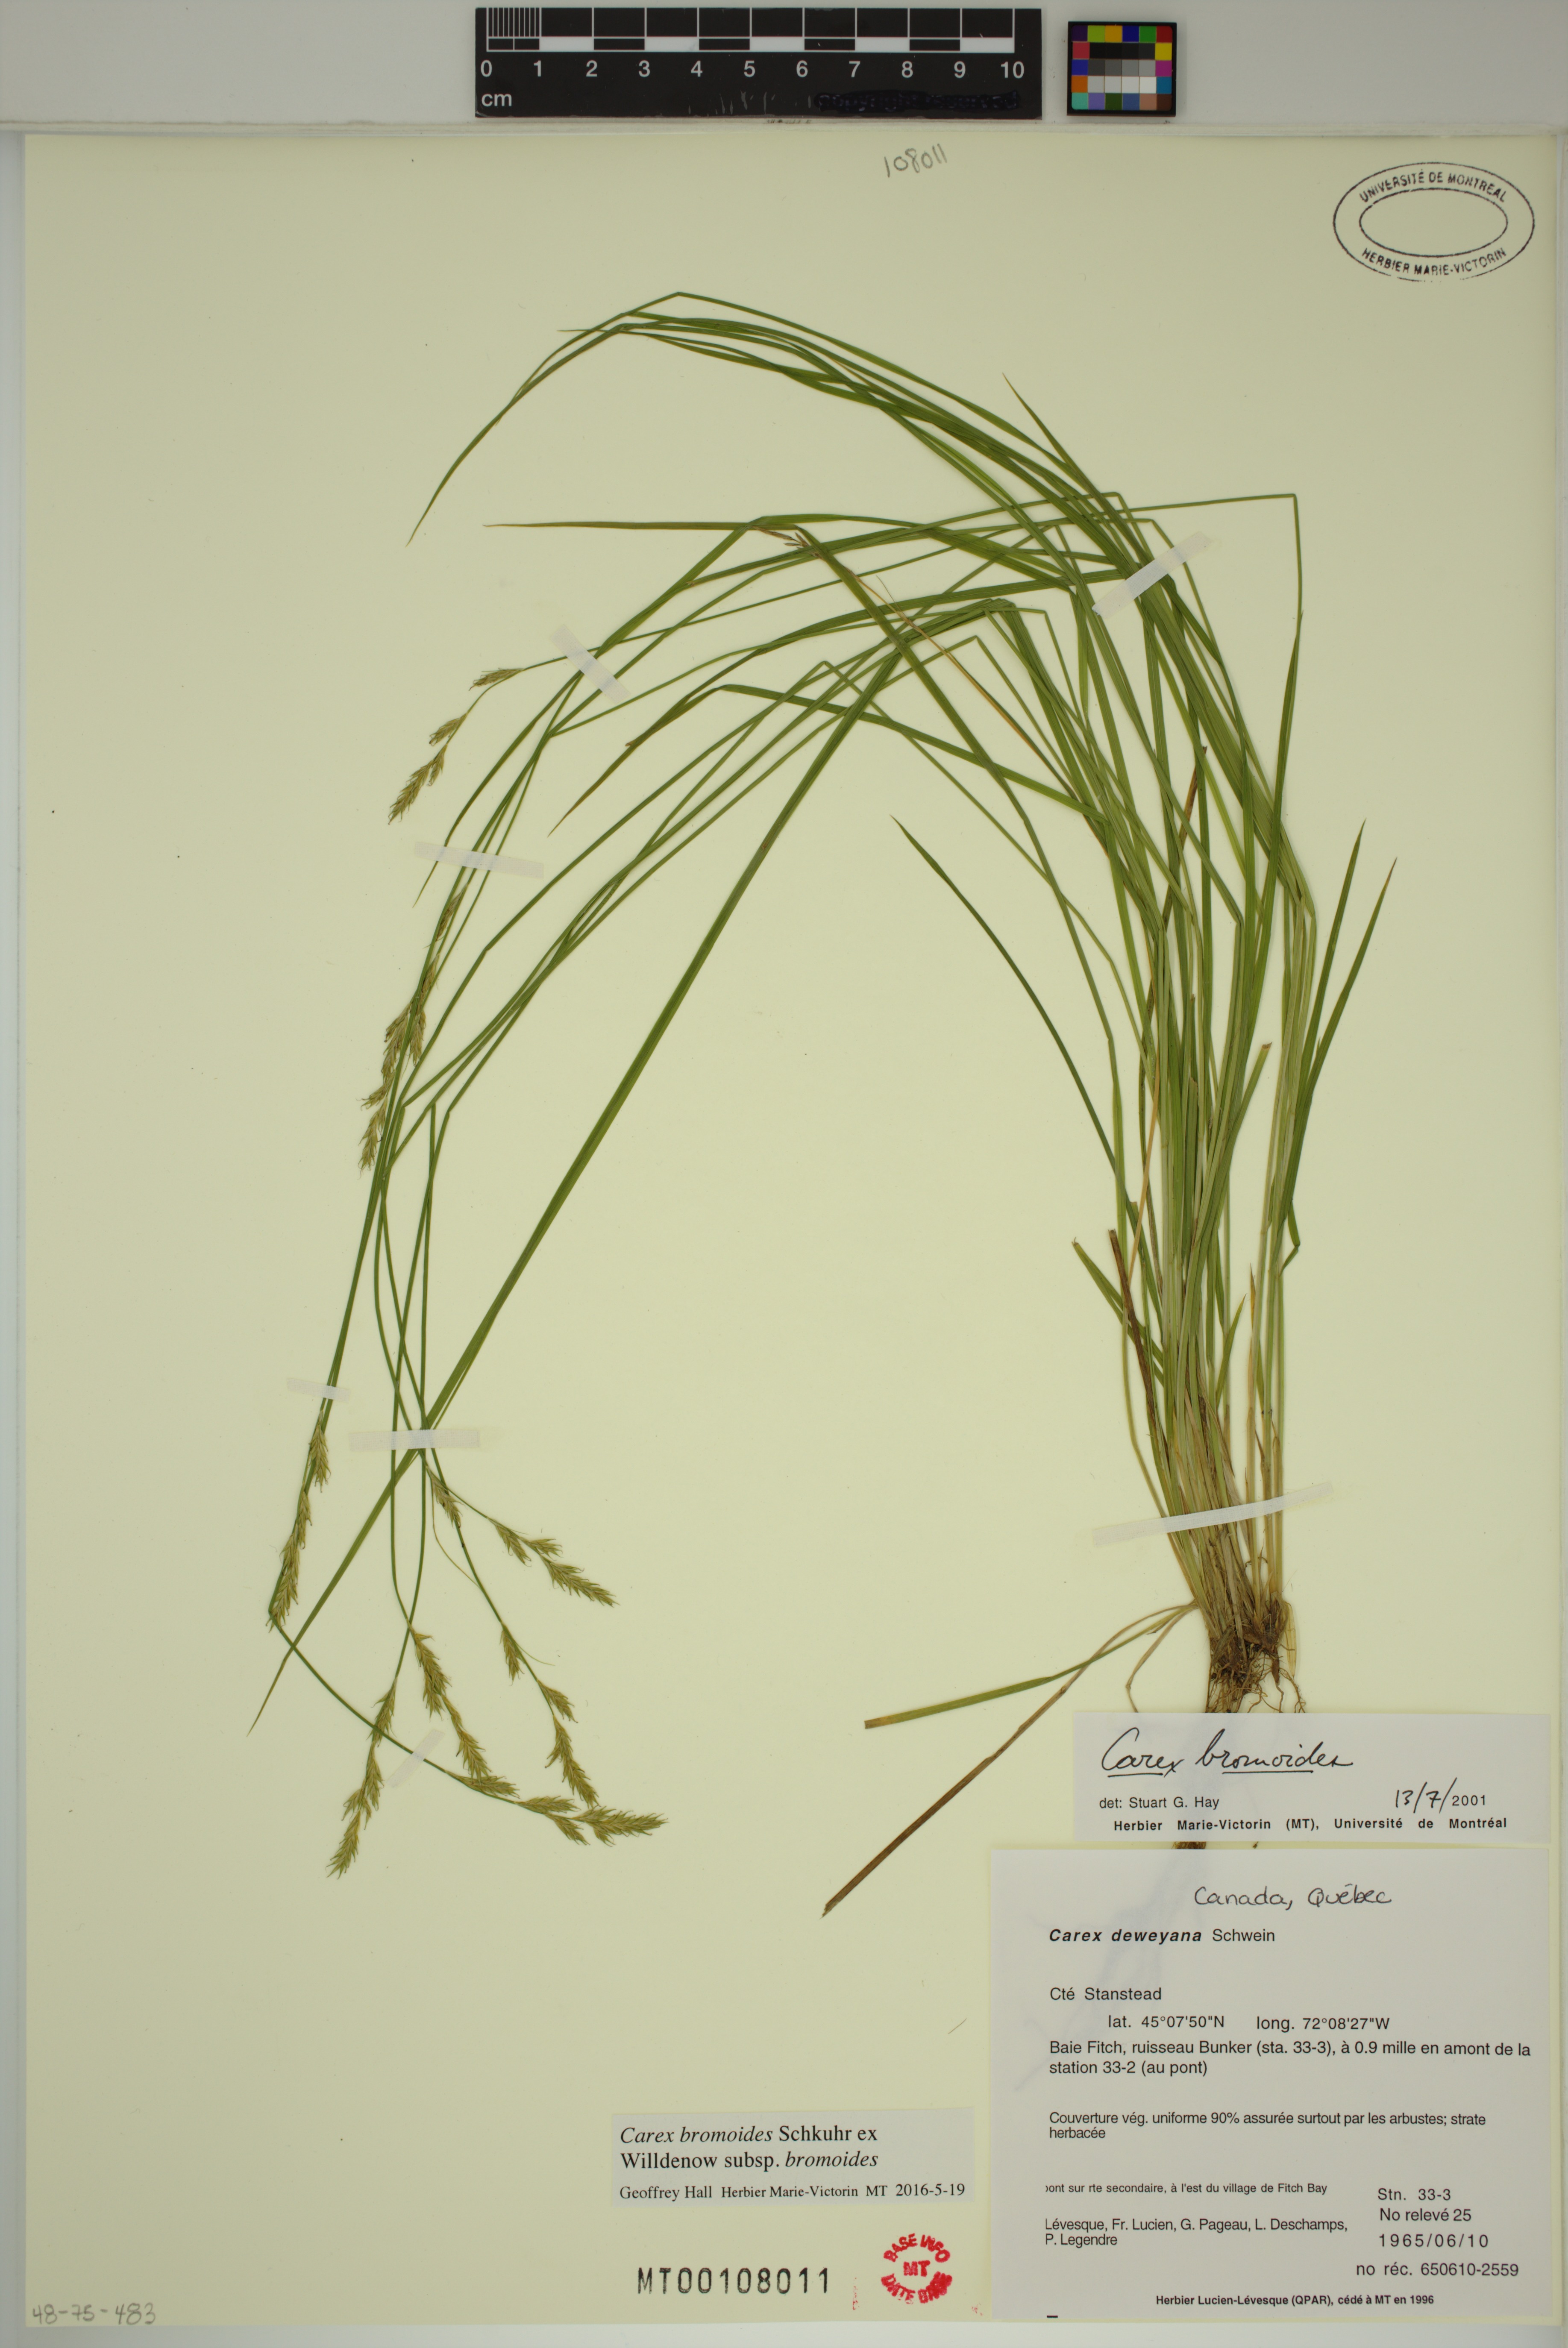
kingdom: Plantae
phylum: Tracheophyta
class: Liliopsida
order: Poales
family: Cyperaceae
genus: Carex
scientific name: Carex bromoides
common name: Brome hummock sedge
